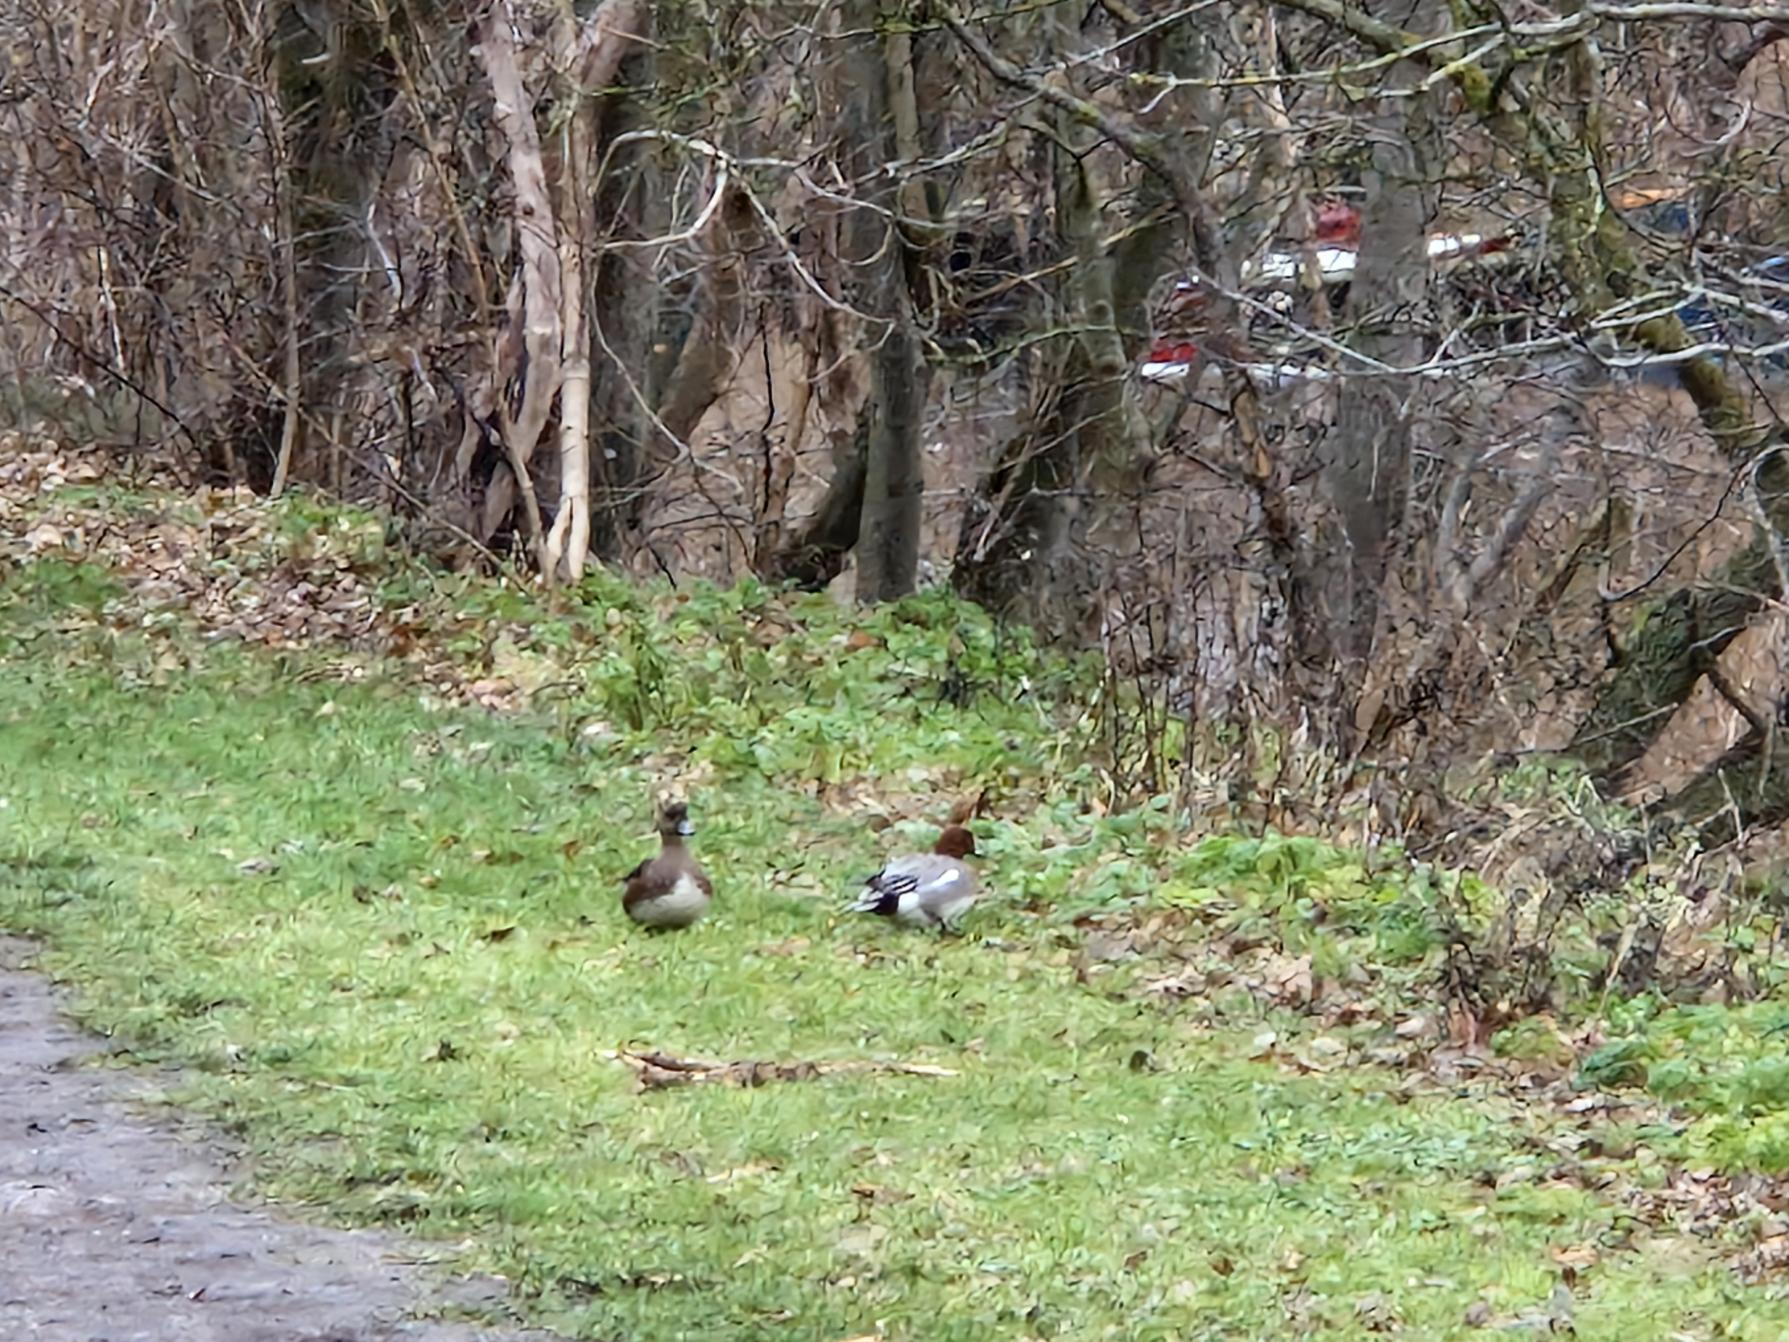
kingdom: Animalia
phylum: Chordata
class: Aves
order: Anseriformes
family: Anatidae
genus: Mareca
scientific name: Mareca penelope
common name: Pibeand
